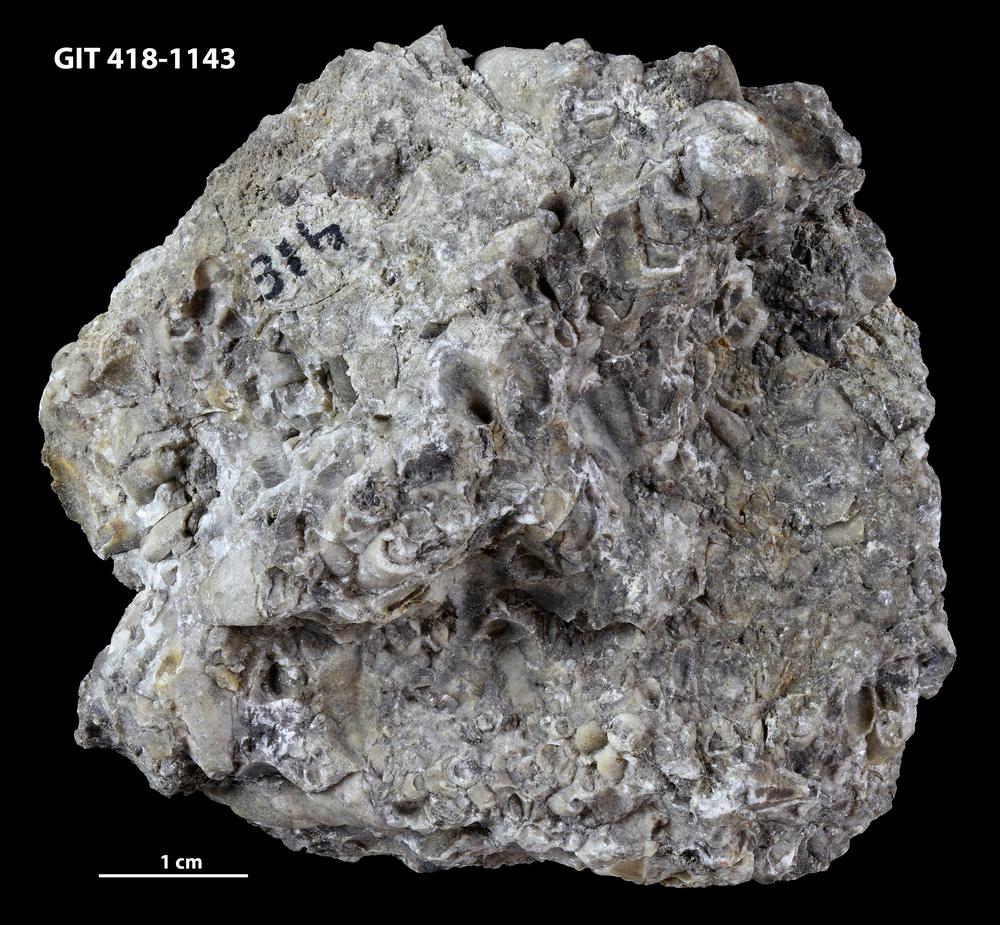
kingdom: Animalia
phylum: Porifera
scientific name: Porifera
